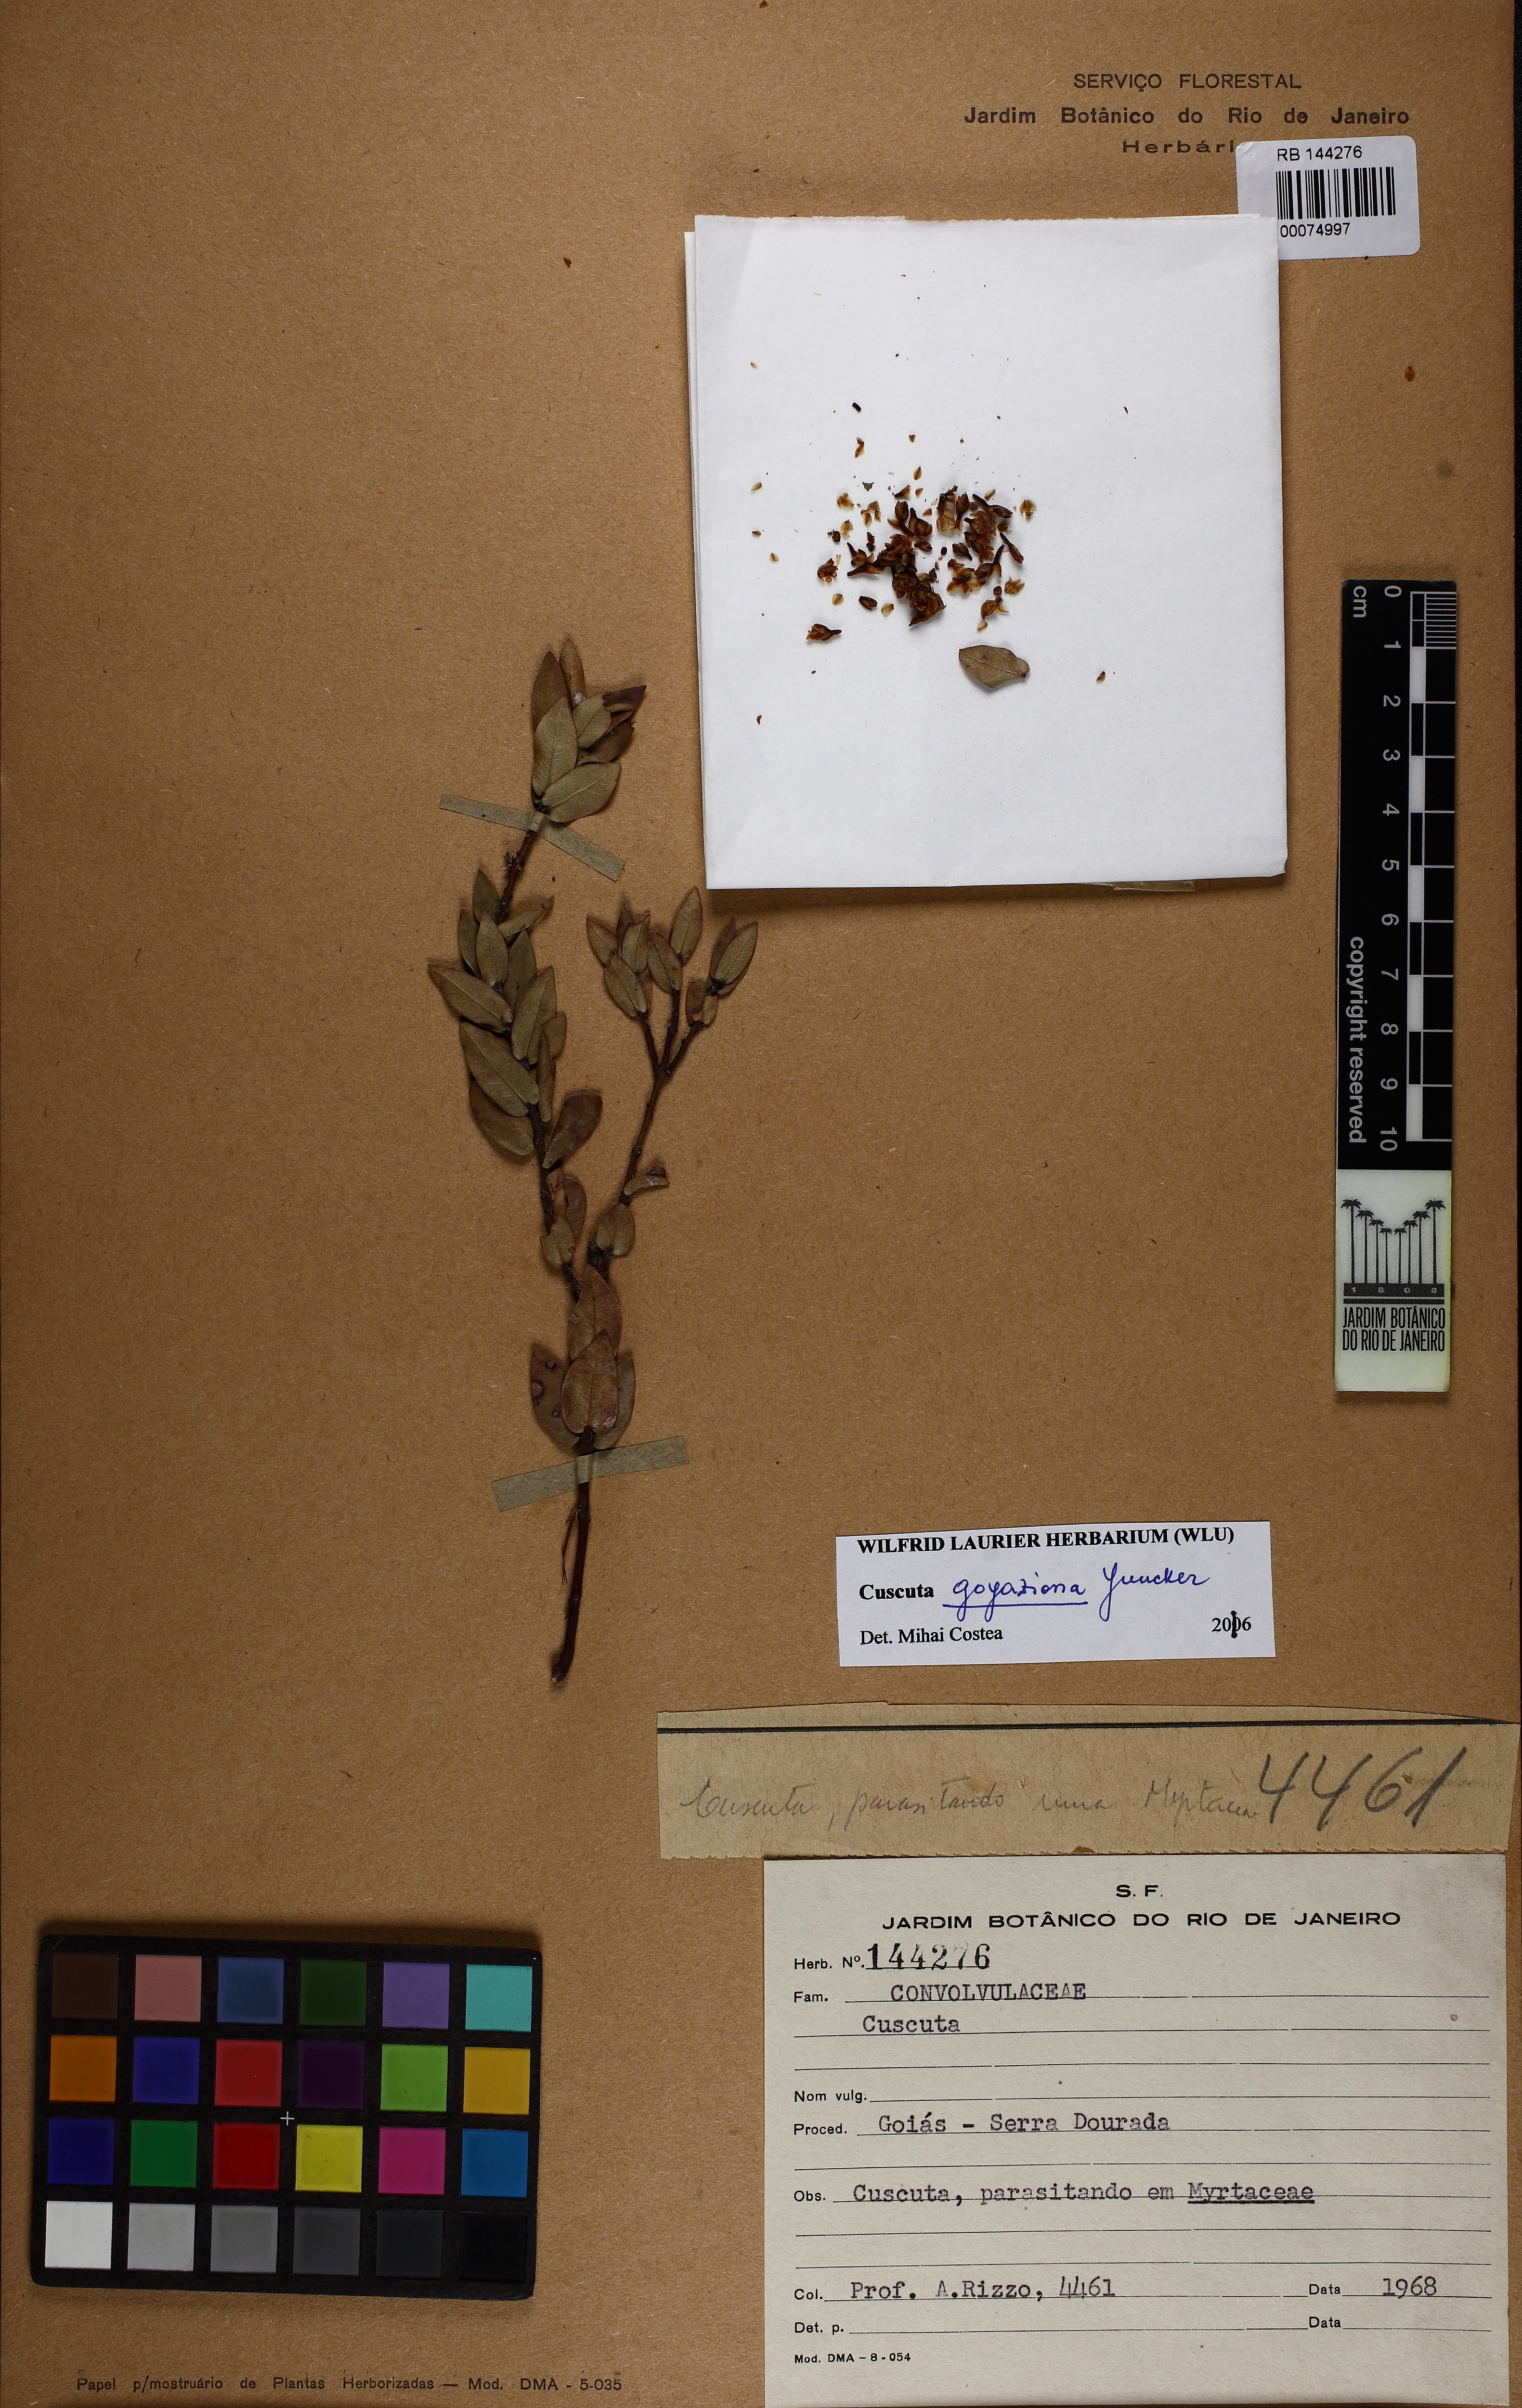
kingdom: Plantae
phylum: Tracheophyta
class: Magnoliopsida
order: Solanales
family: Convolvulaceae
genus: Cuscuta
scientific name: Cuscuta goyaziana
